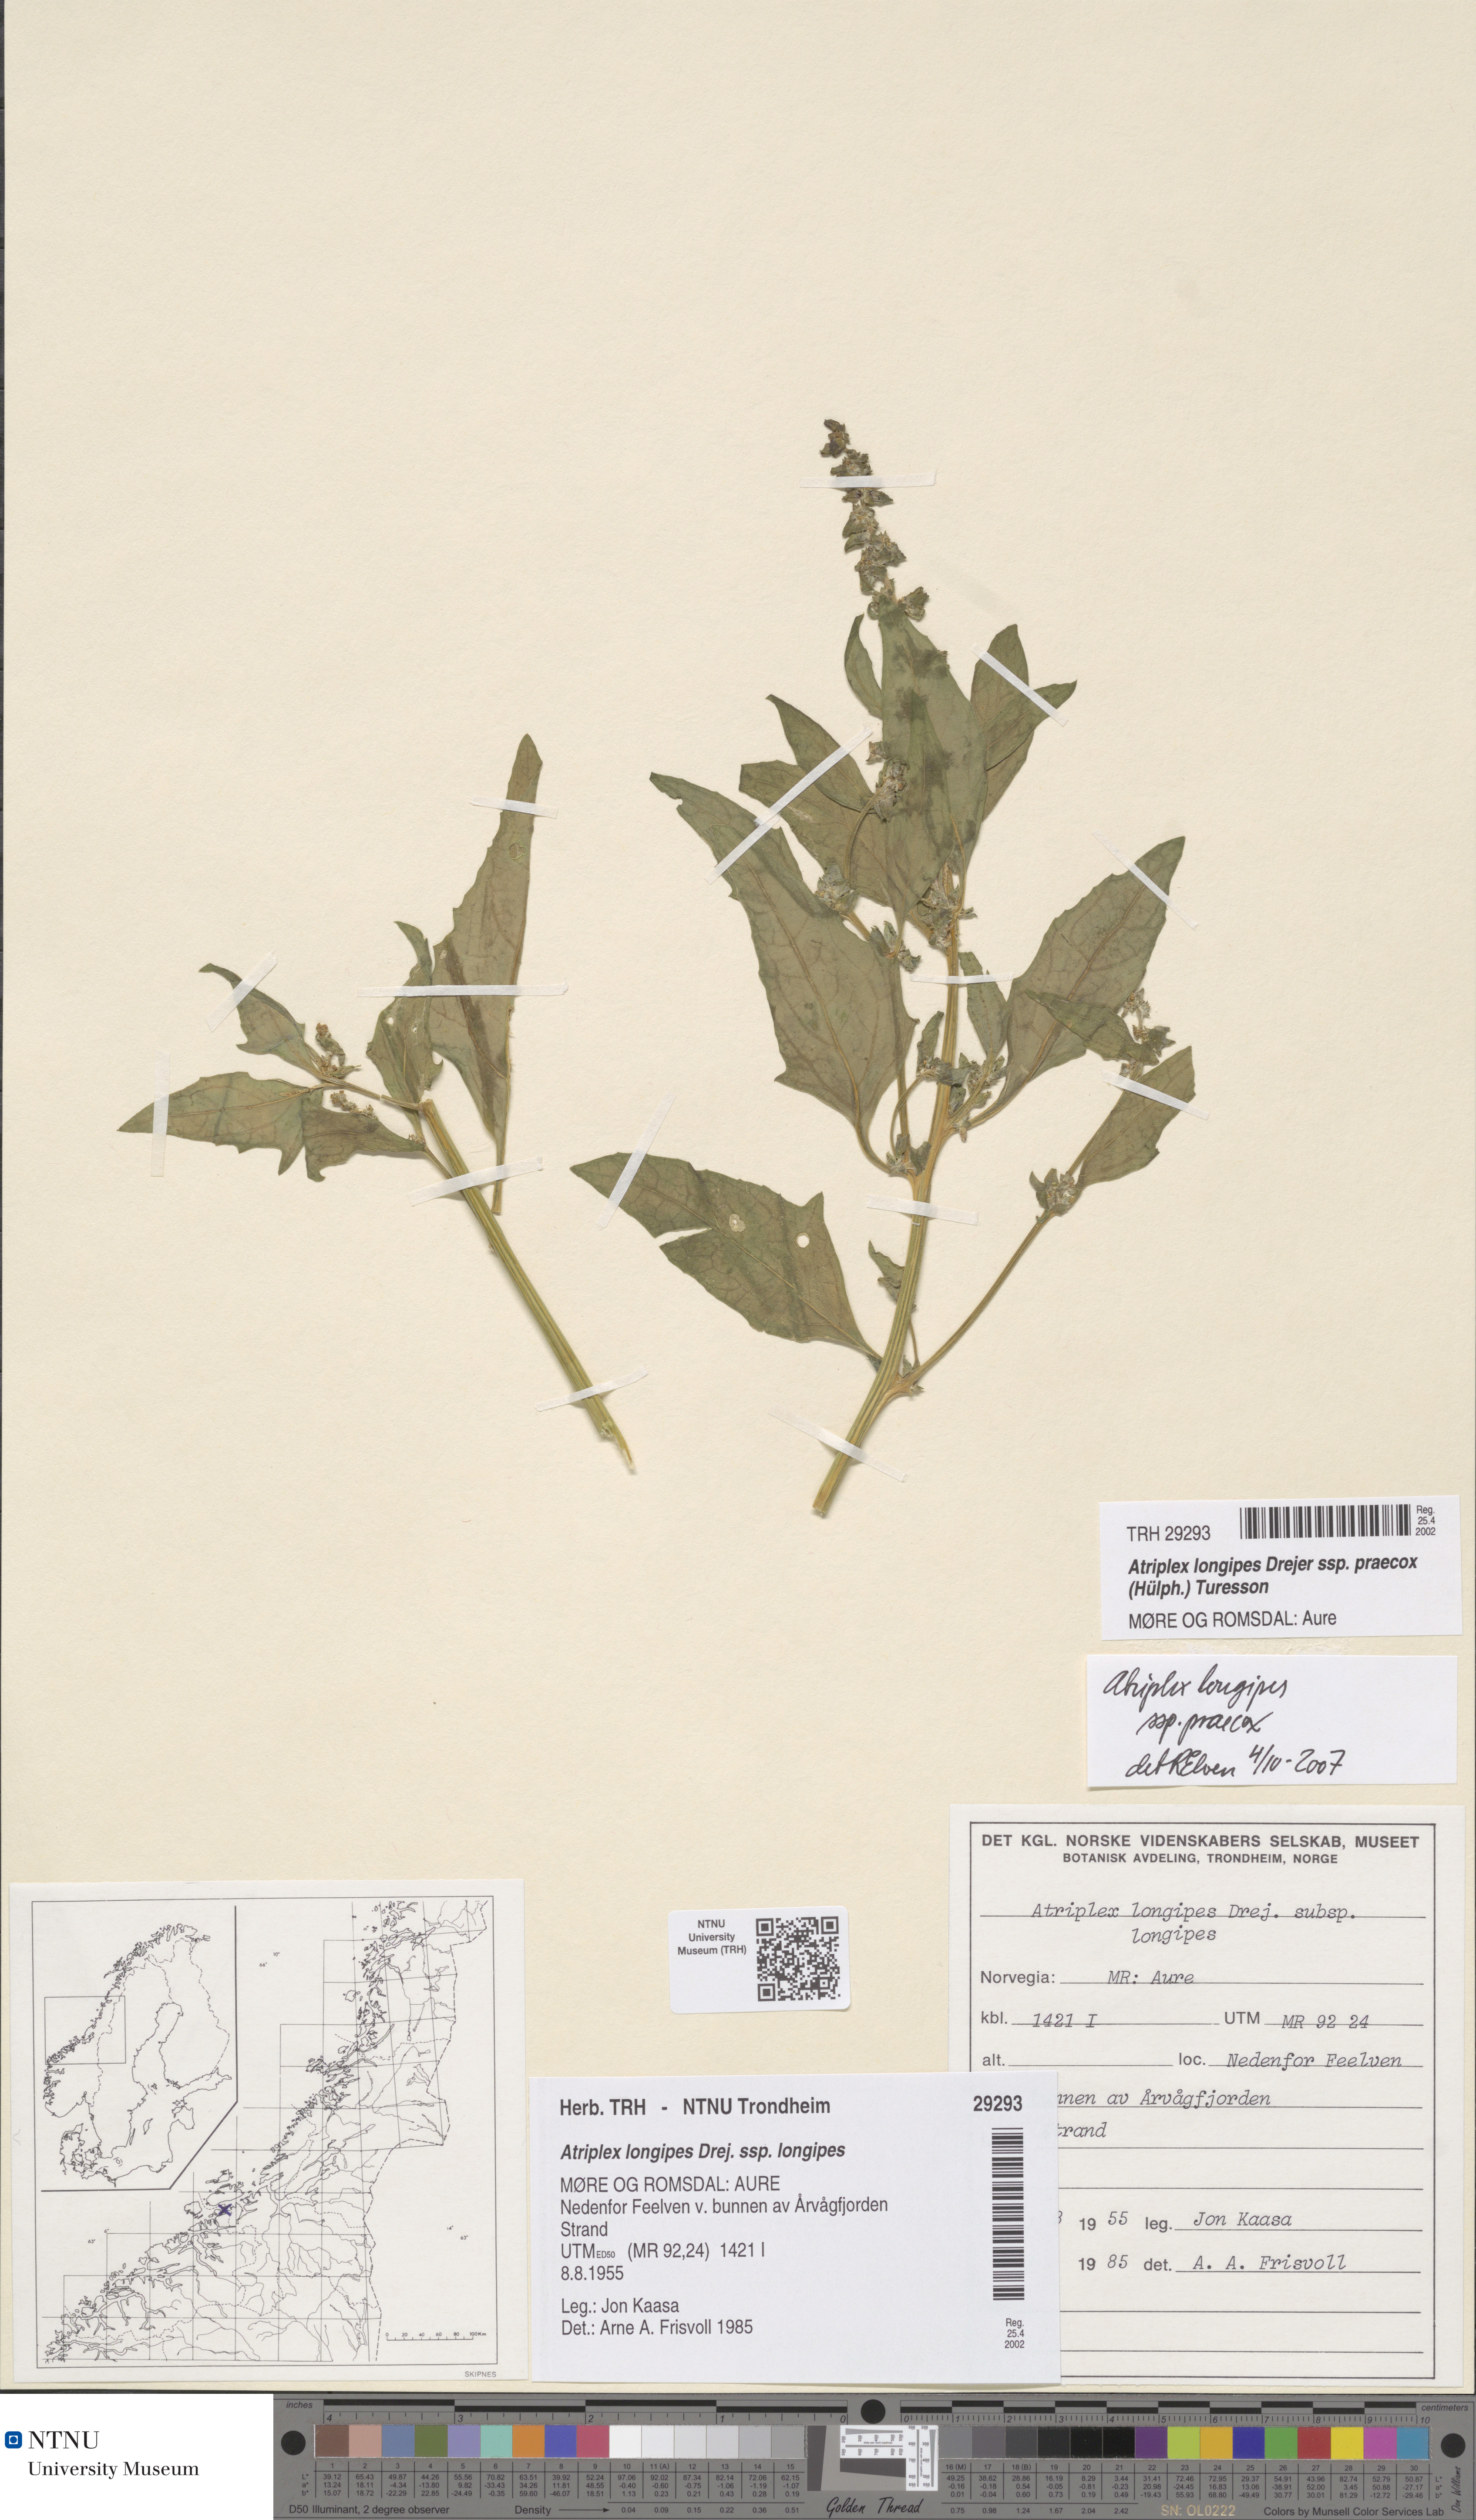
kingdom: Plantae
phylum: Tracheophyta
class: Magnoliopsida
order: Caryophyllales
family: Amaranthaceae
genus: Atriplex
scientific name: Atriplex praecox
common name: Early orache
